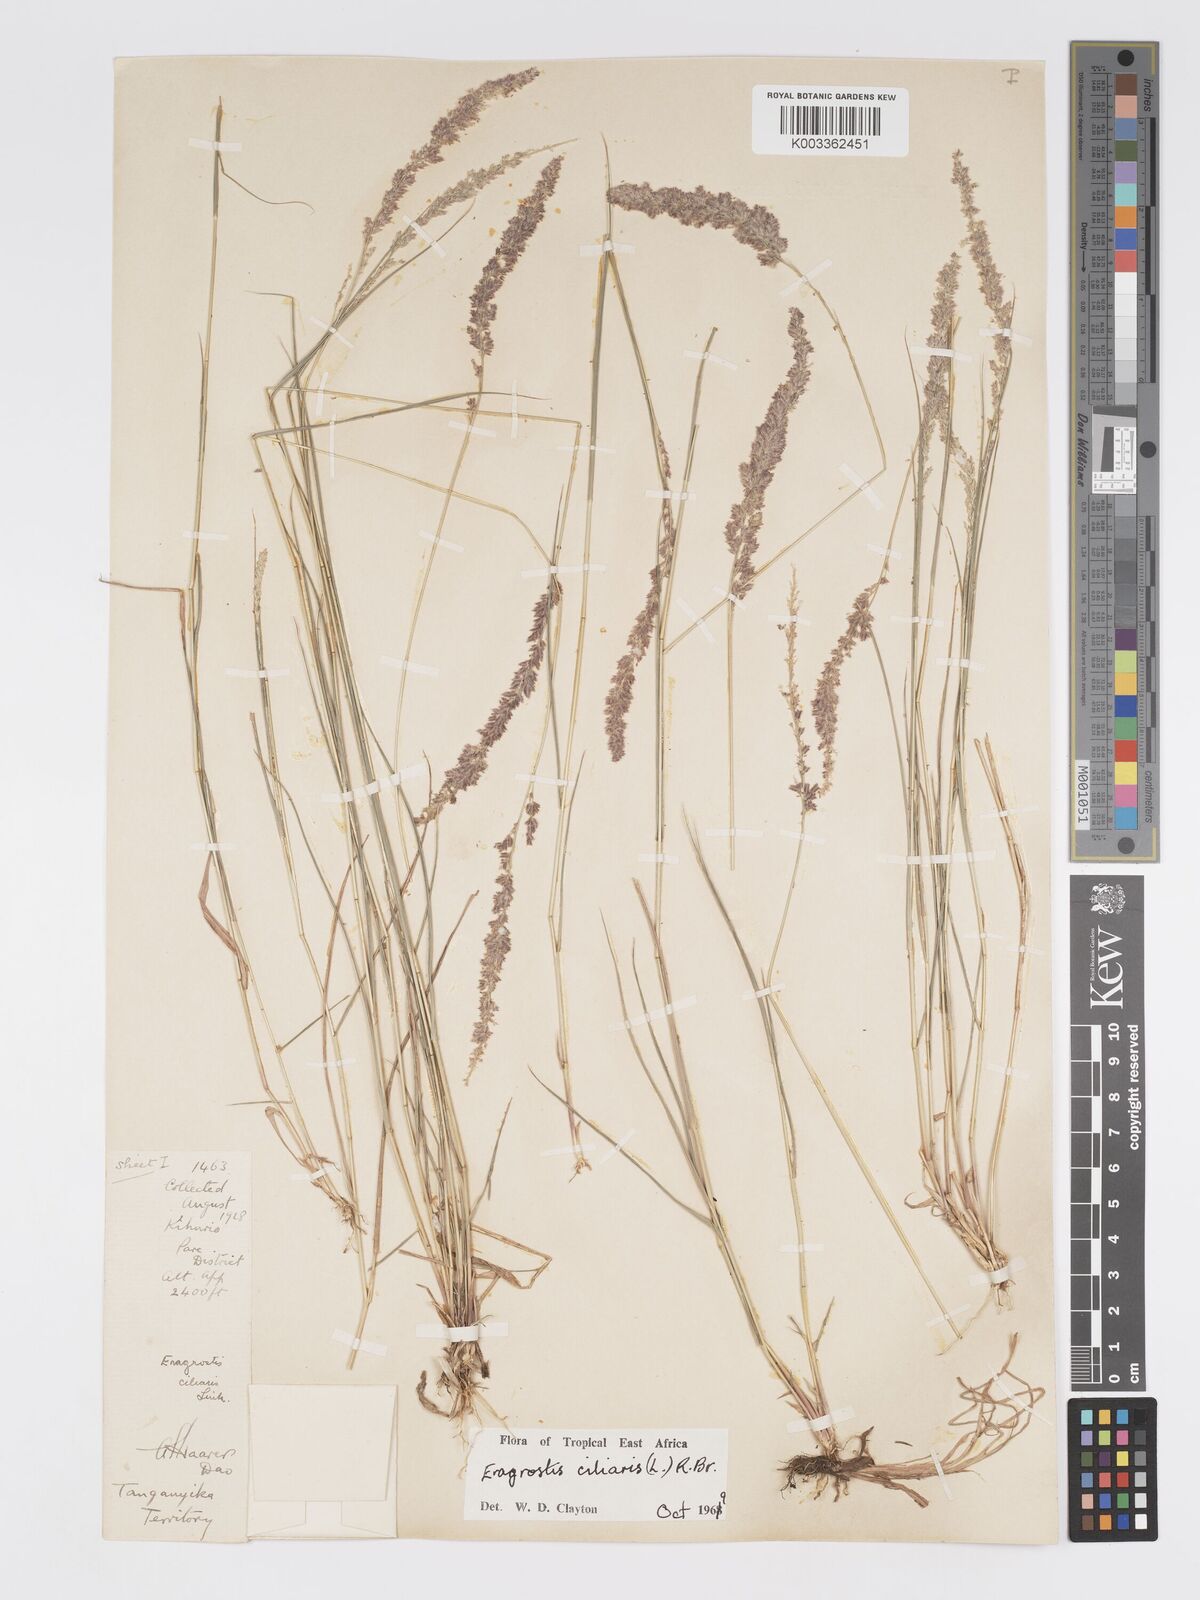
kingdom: Plantae
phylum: Tracheophyta
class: Liliopsida
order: Poales
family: Poaceae
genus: Eragrostis
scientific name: Eragrostis ciliaris
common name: Gophertail lovegrass
